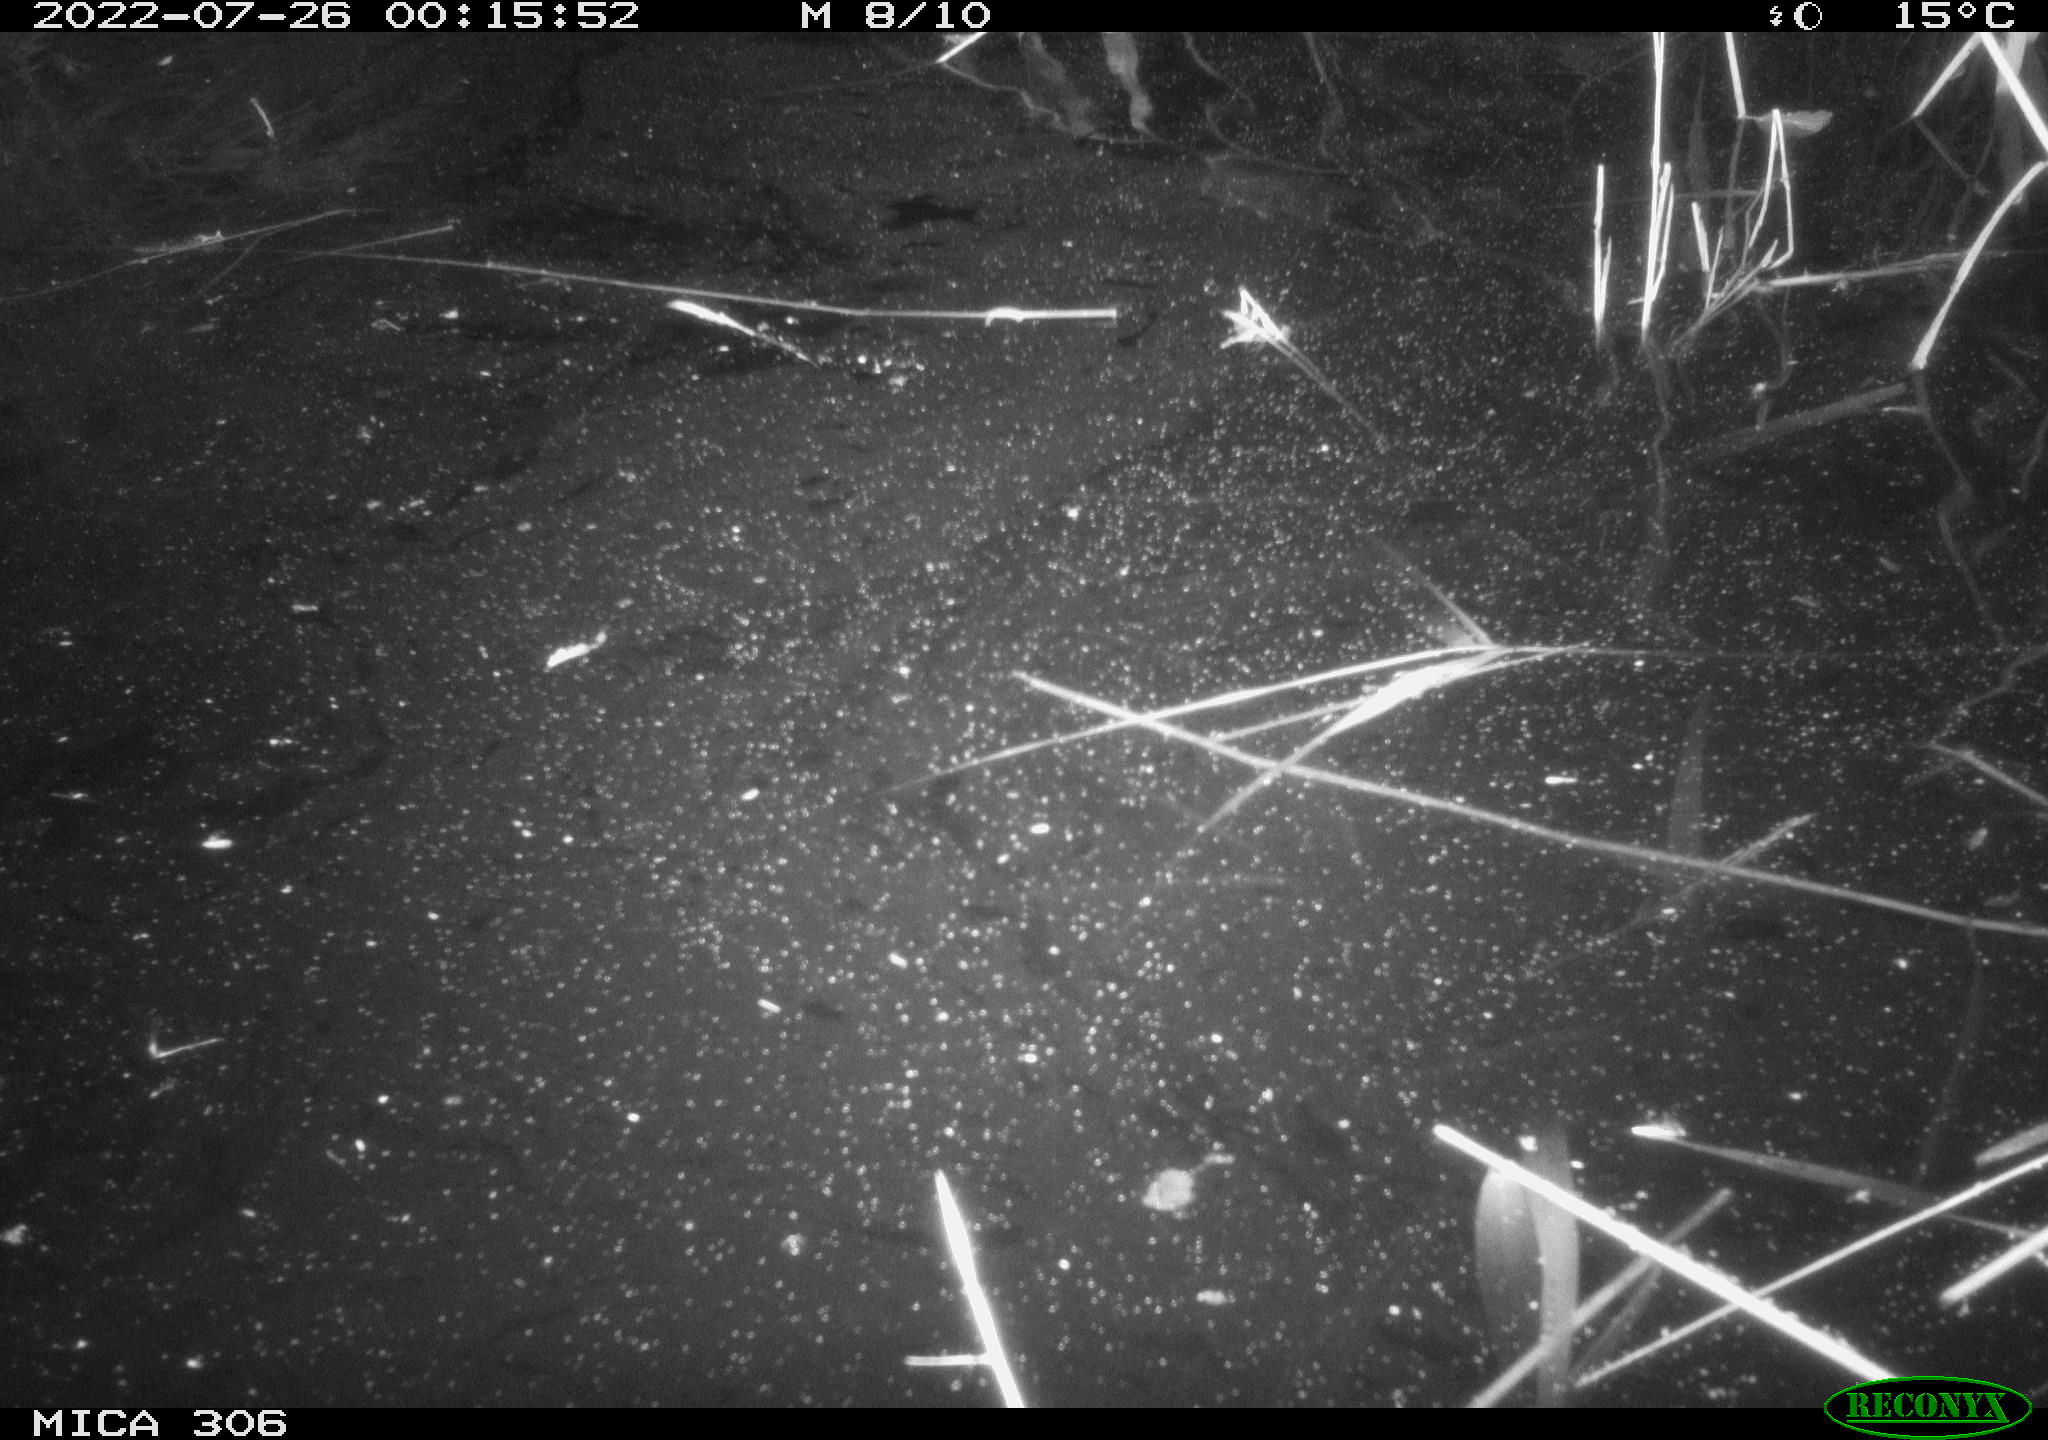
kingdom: Animalia
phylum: Chordata
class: Mammalia
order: Rodentia
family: Cricetidae
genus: Ondatra
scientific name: Ondatra zibethicus
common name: Muskrat
